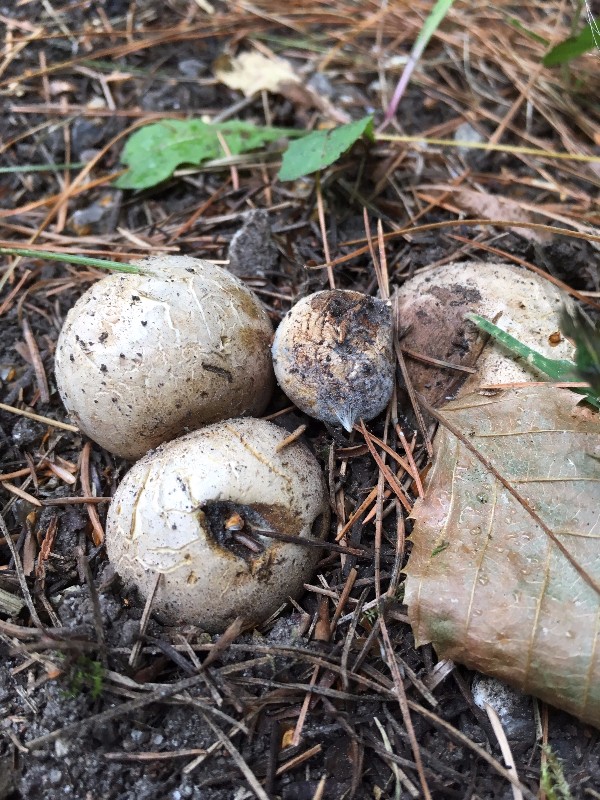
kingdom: Fungi
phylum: Basidiomycota
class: Agaricomycetes
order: Boletales
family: Sclerodermataceae
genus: Scleroderma
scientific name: Scleroderma bovista
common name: bovist-bruskbold
